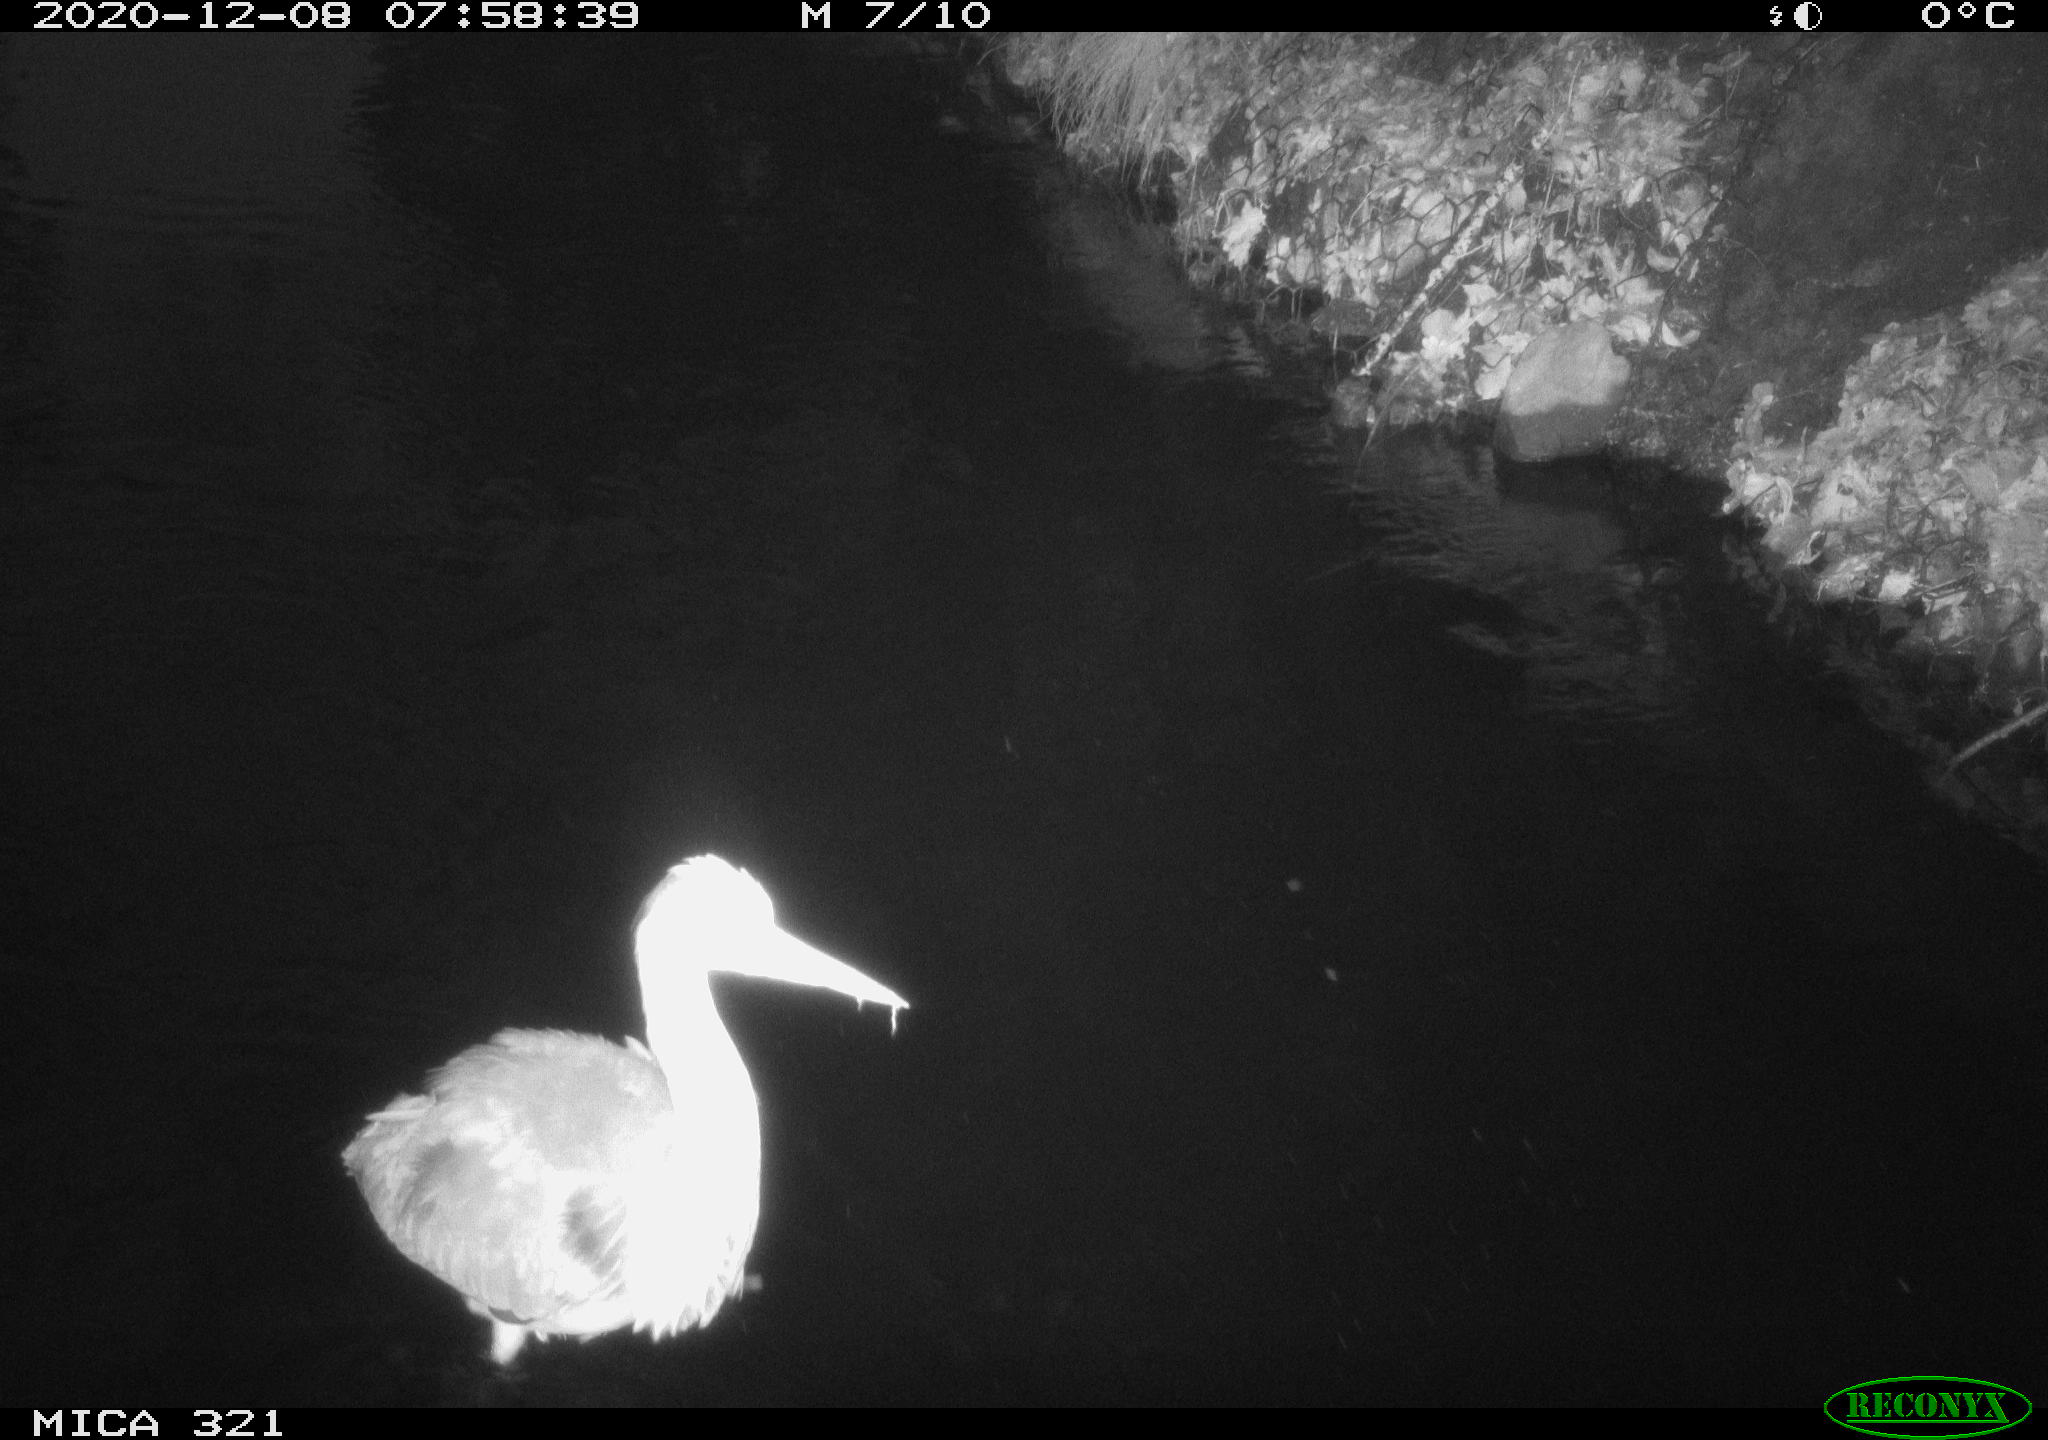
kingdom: Animalia
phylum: Chordata
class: Aves
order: Pelecaniformes
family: Ardeidae
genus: Ardea
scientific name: Ardea cinerea
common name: Grey heron
